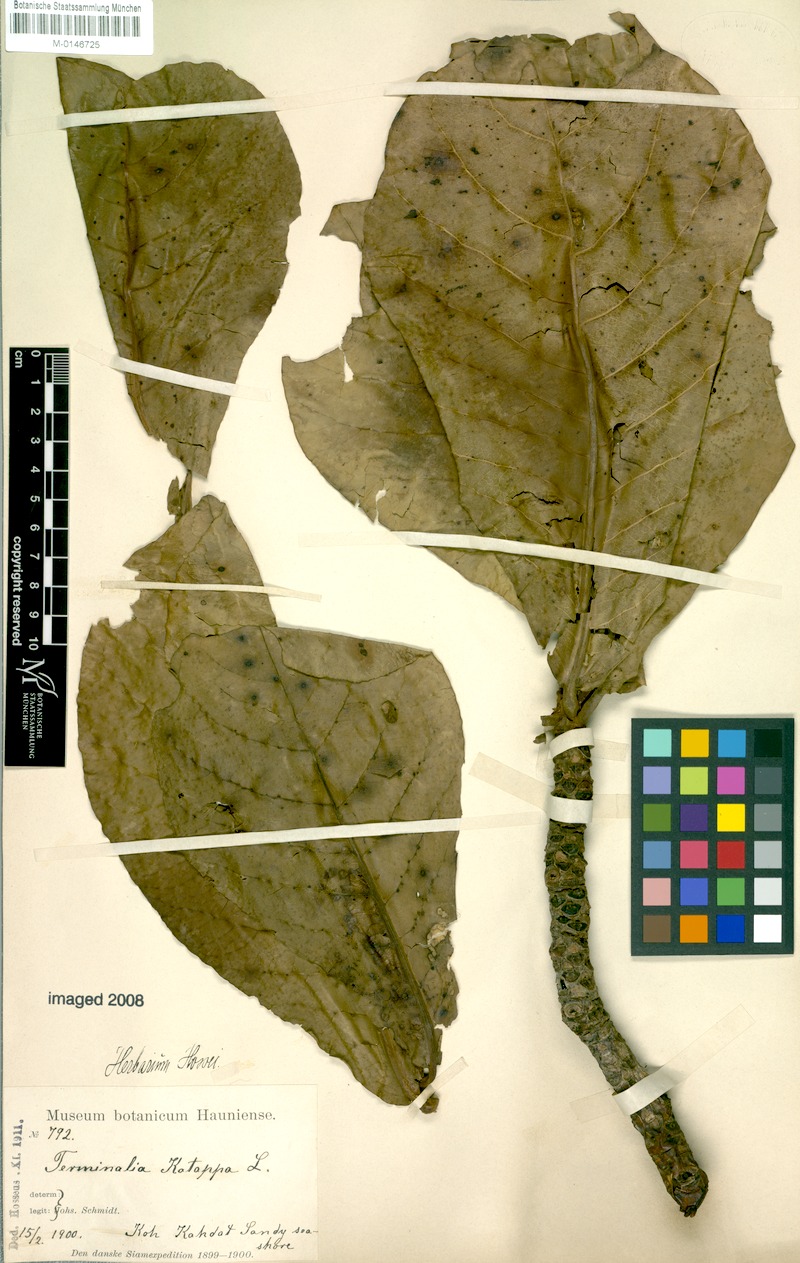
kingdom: Plantae
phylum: Tracheophyta
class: Magnoliopsida
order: Myrtales
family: Combretaceae
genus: Terminalia
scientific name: Terminalia catappa
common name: Tropical almond
